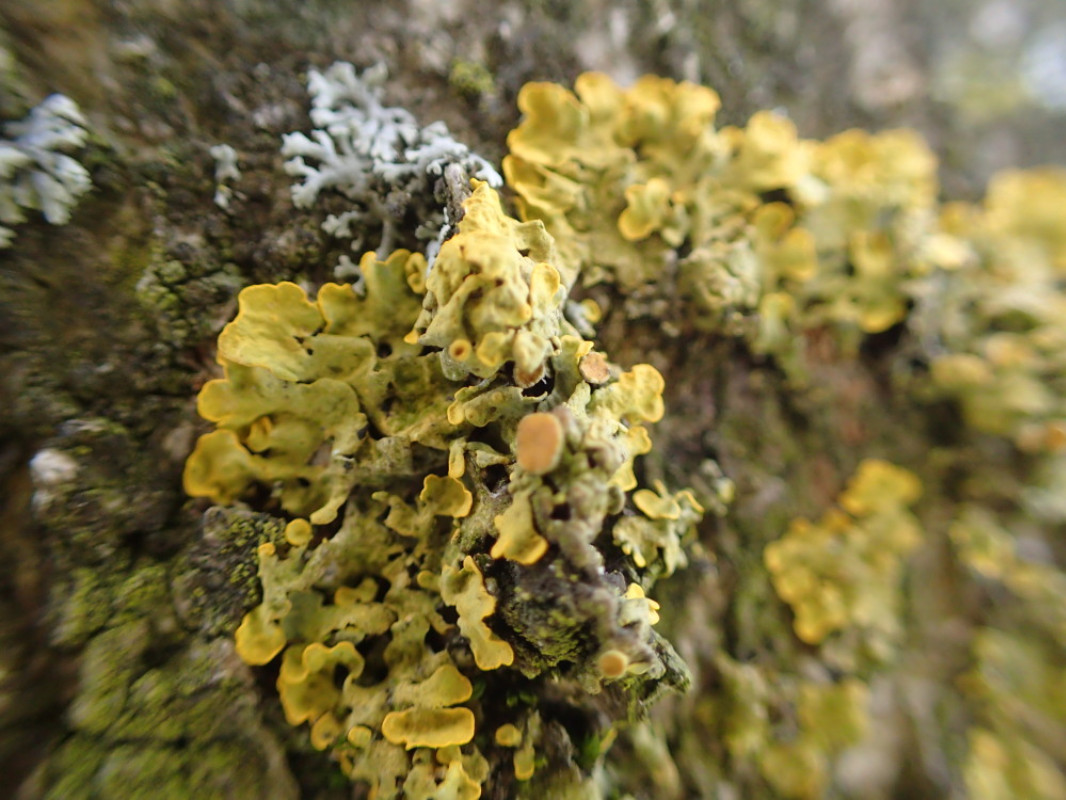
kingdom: Fungi
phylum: Ascomycota
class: Lecanoromycetes
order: Teloschistales
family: Teloschistaceae
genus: Xanthoria
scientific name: Xanthoria parietina
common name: almindelig væggelav
